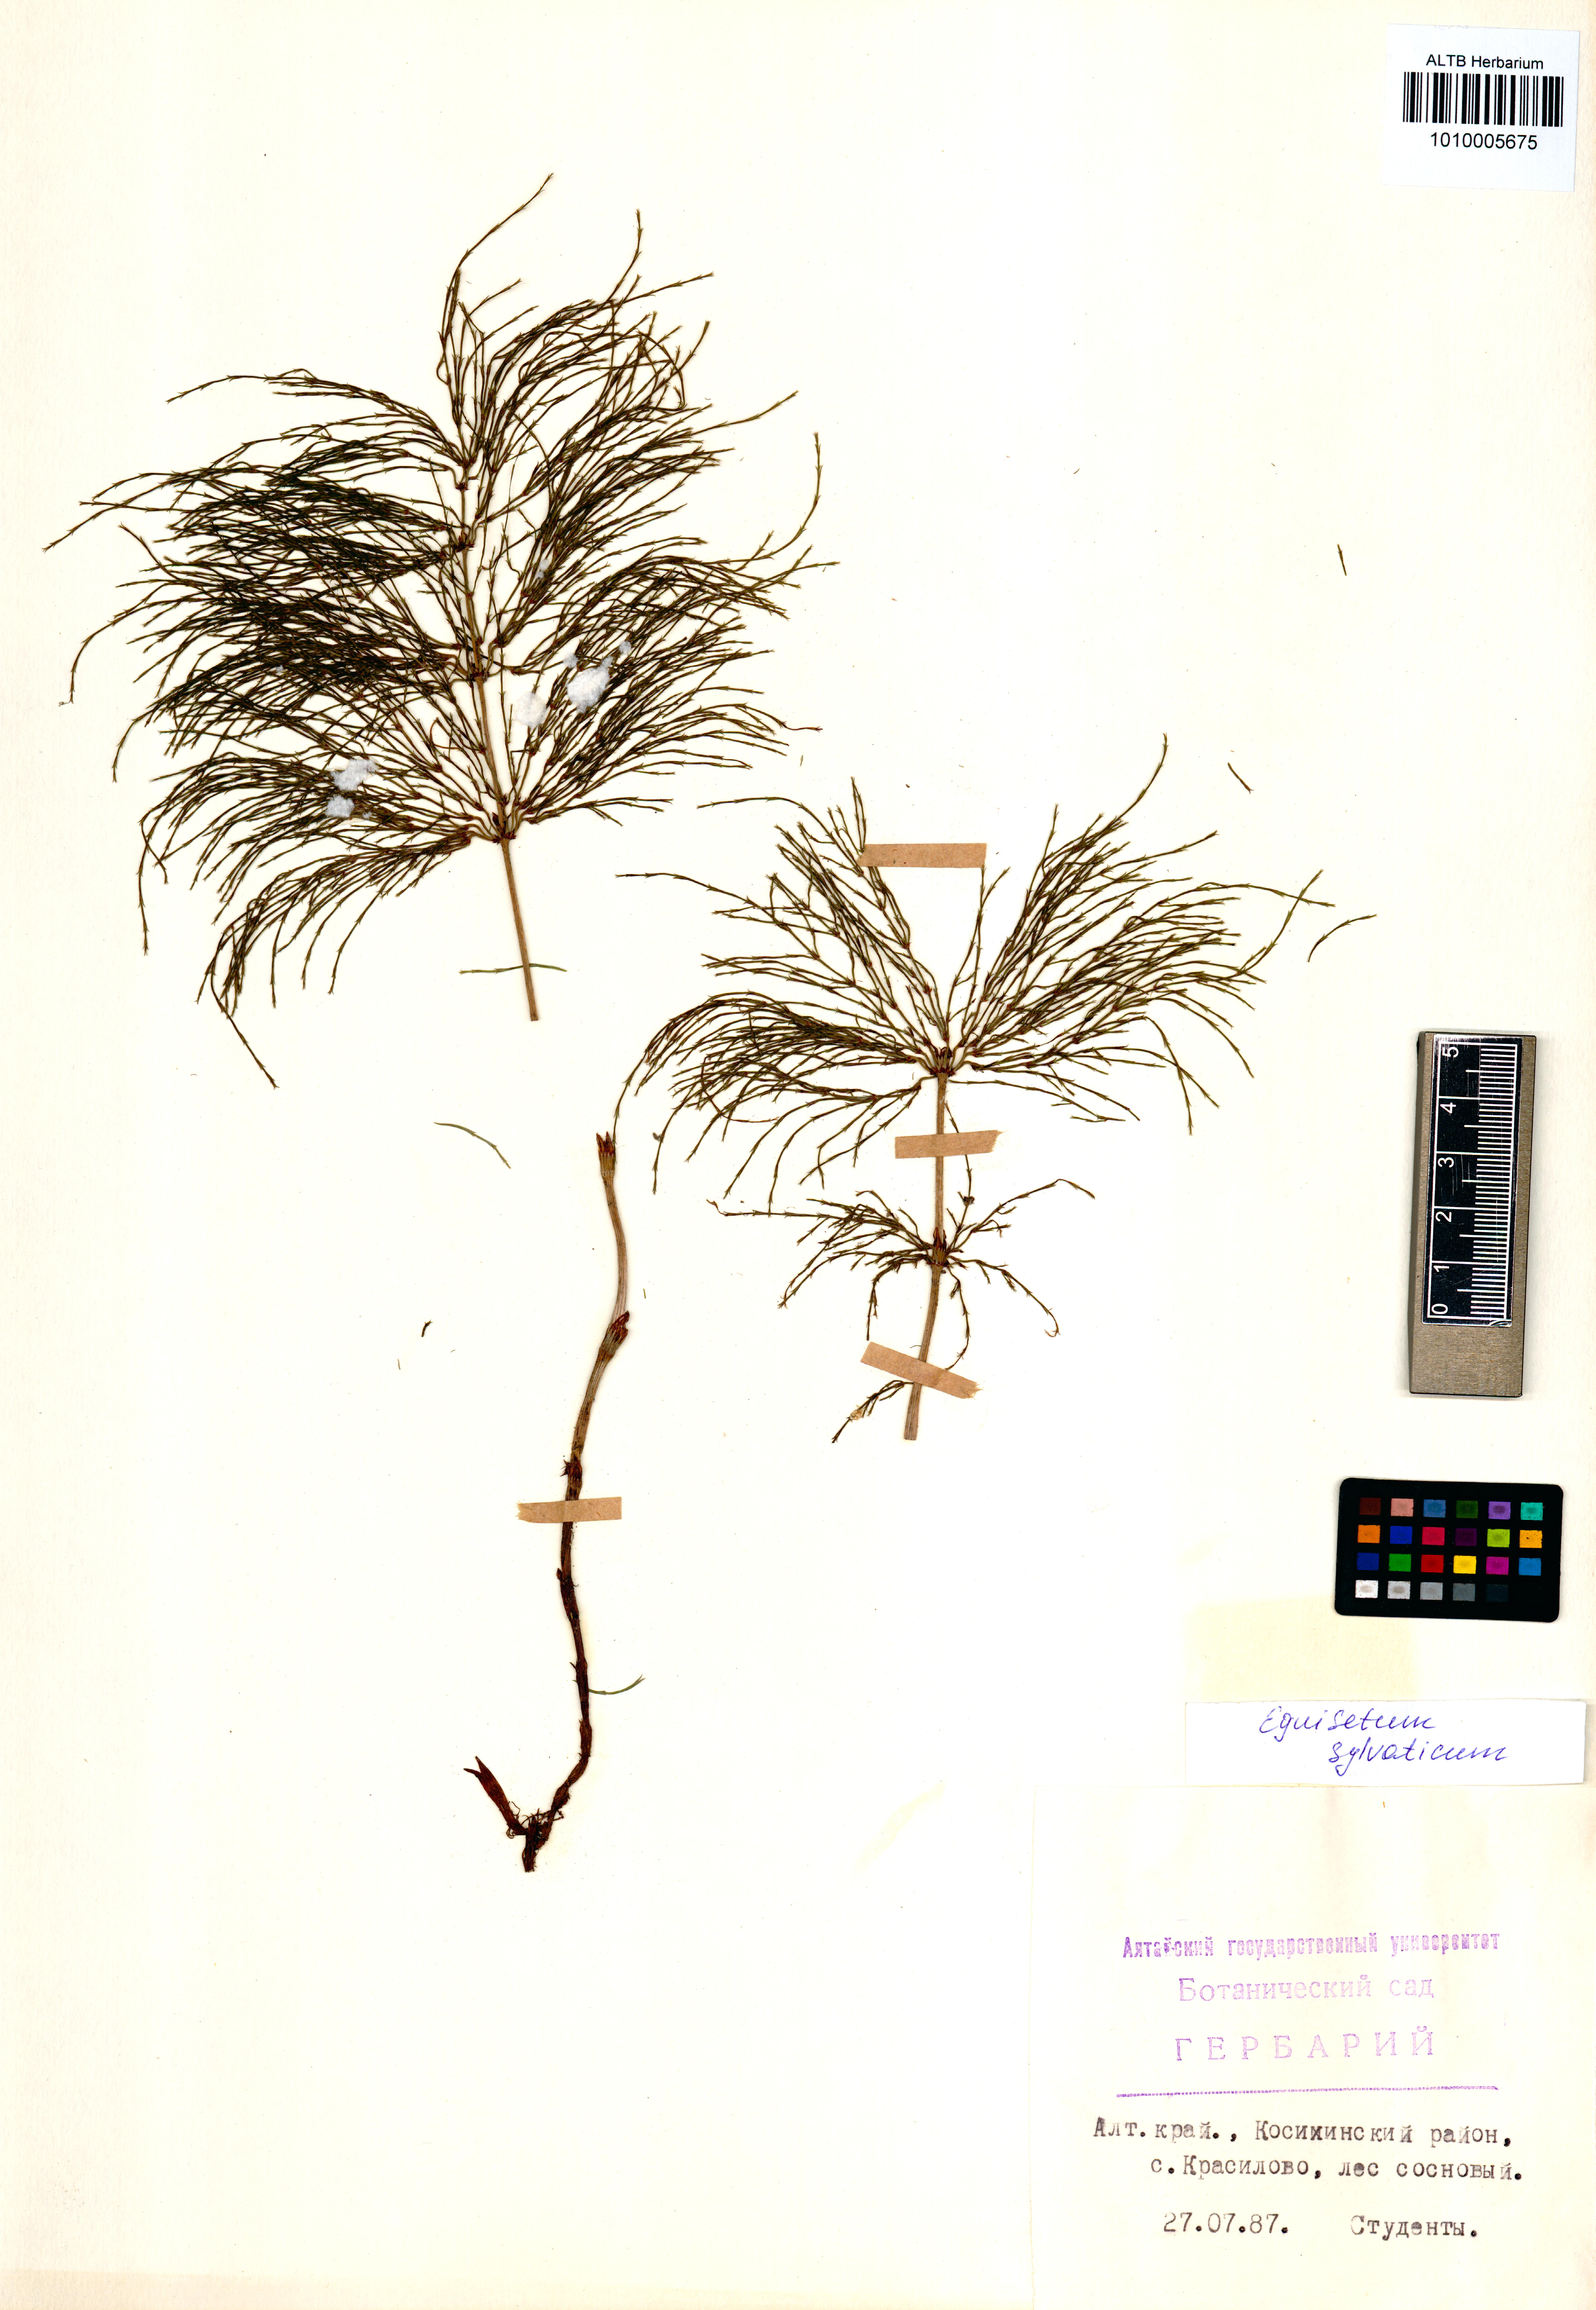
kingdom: Plantae
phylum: Tracheophyta
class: Polypodiopsida
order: Equisetales
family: Equisetaceae
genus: Equisetum
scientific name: Equisetum sylvaticum
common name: Wood horsetail
